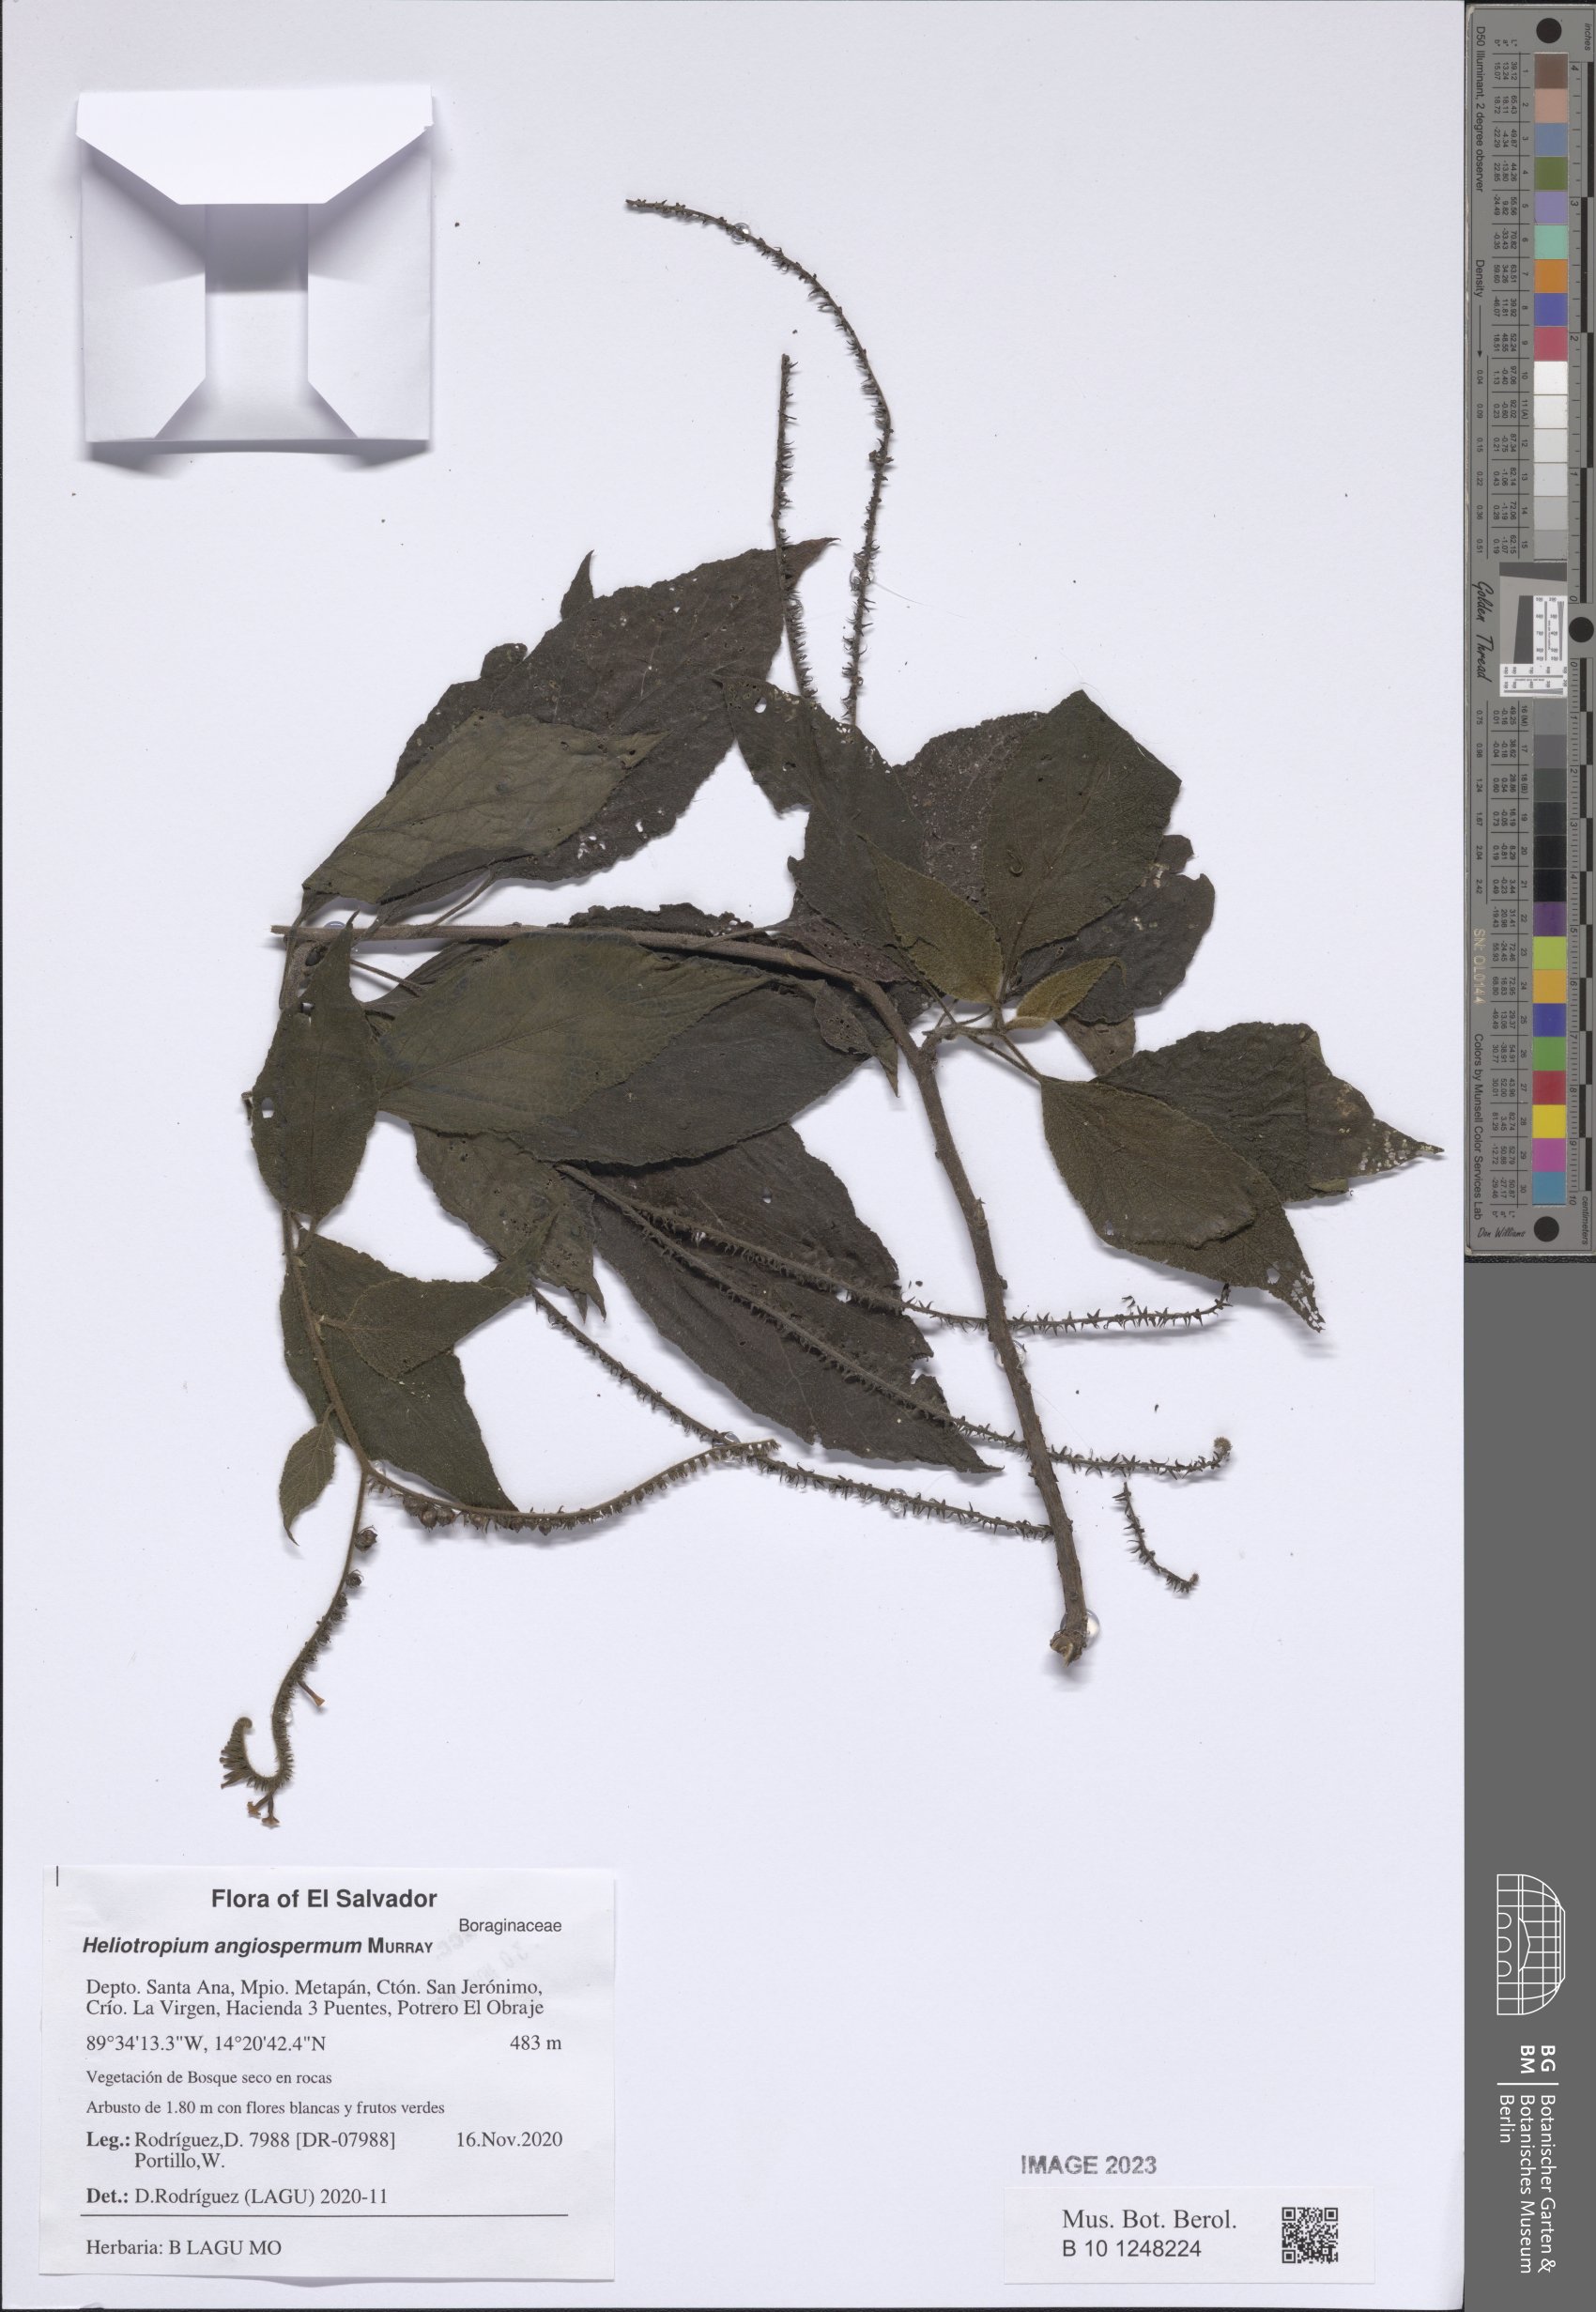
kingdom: Plantae
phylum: Tracheophyta
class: Magnoliopsida
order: Boraginales
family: Heliotropiaceae
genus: Heliotropium
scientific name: Heliotropium angiospermum
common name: Eye bright
